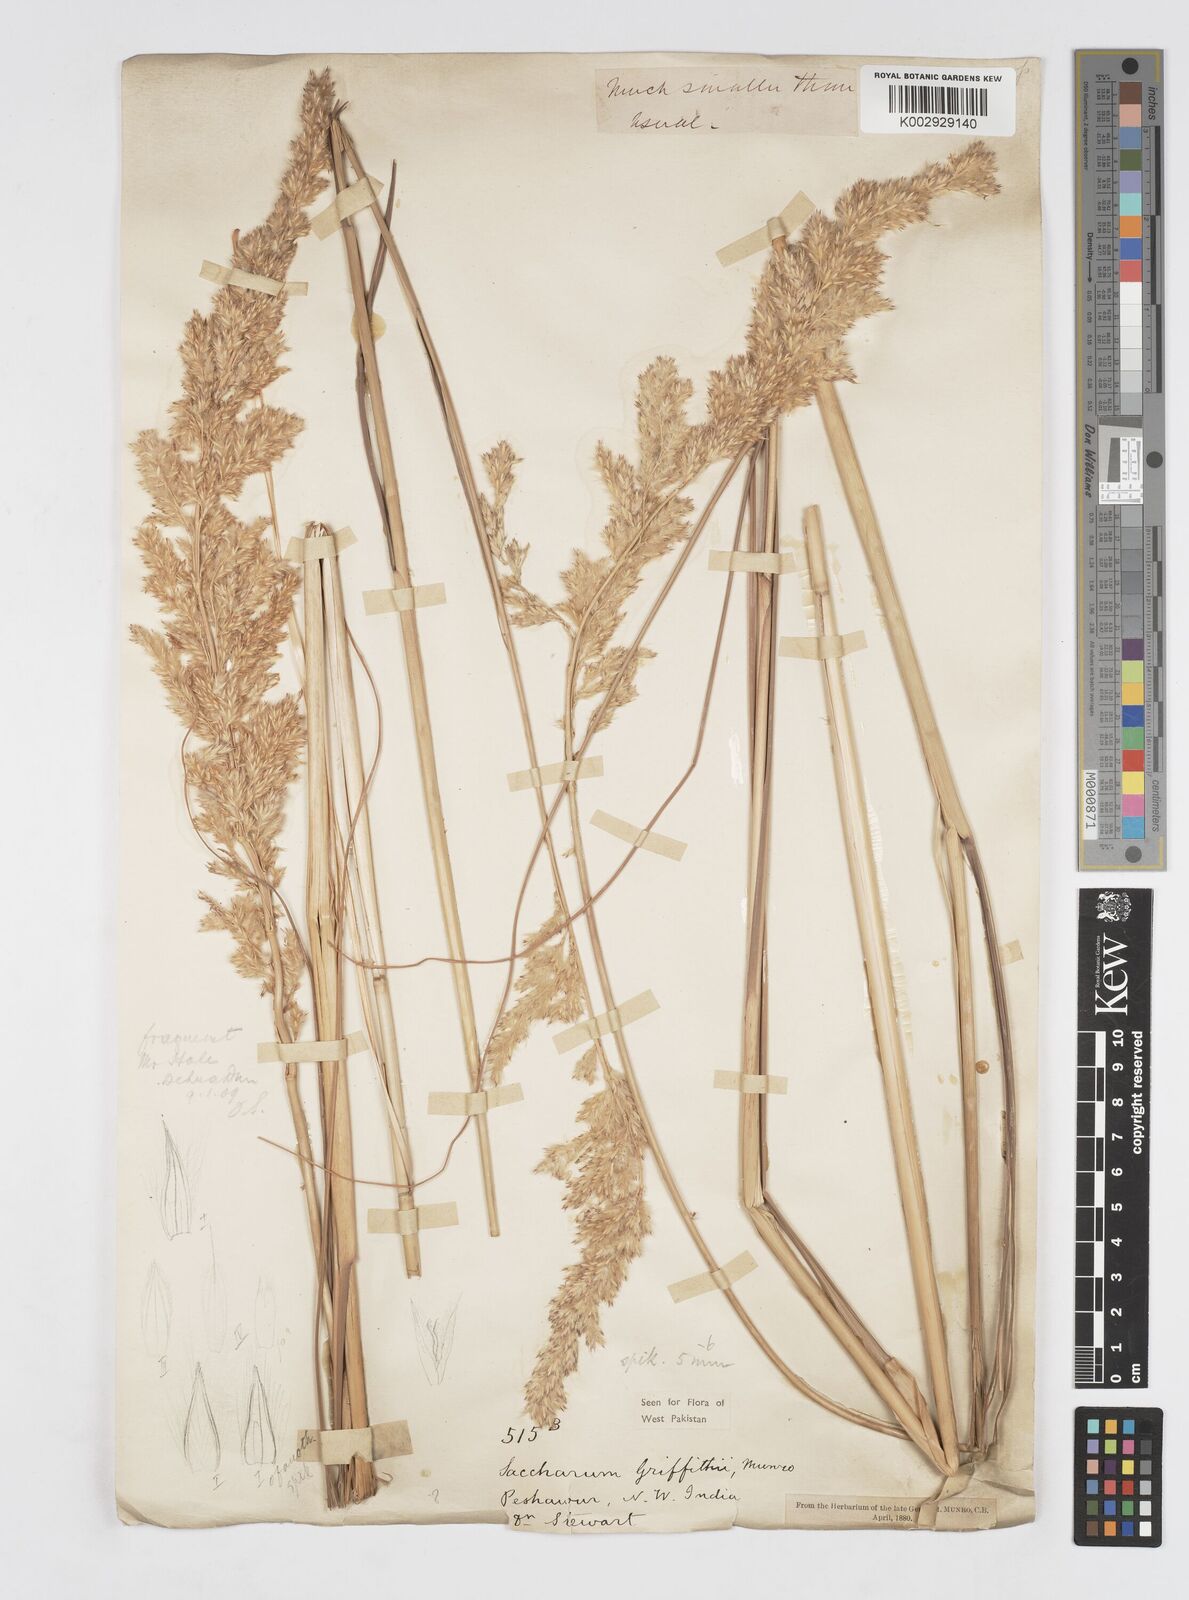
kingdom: Plantae
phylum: Tracheophyta
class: Liliopsida
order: Poales
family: Poaceae
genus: Saccharum
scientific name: Saccharum griffithii
